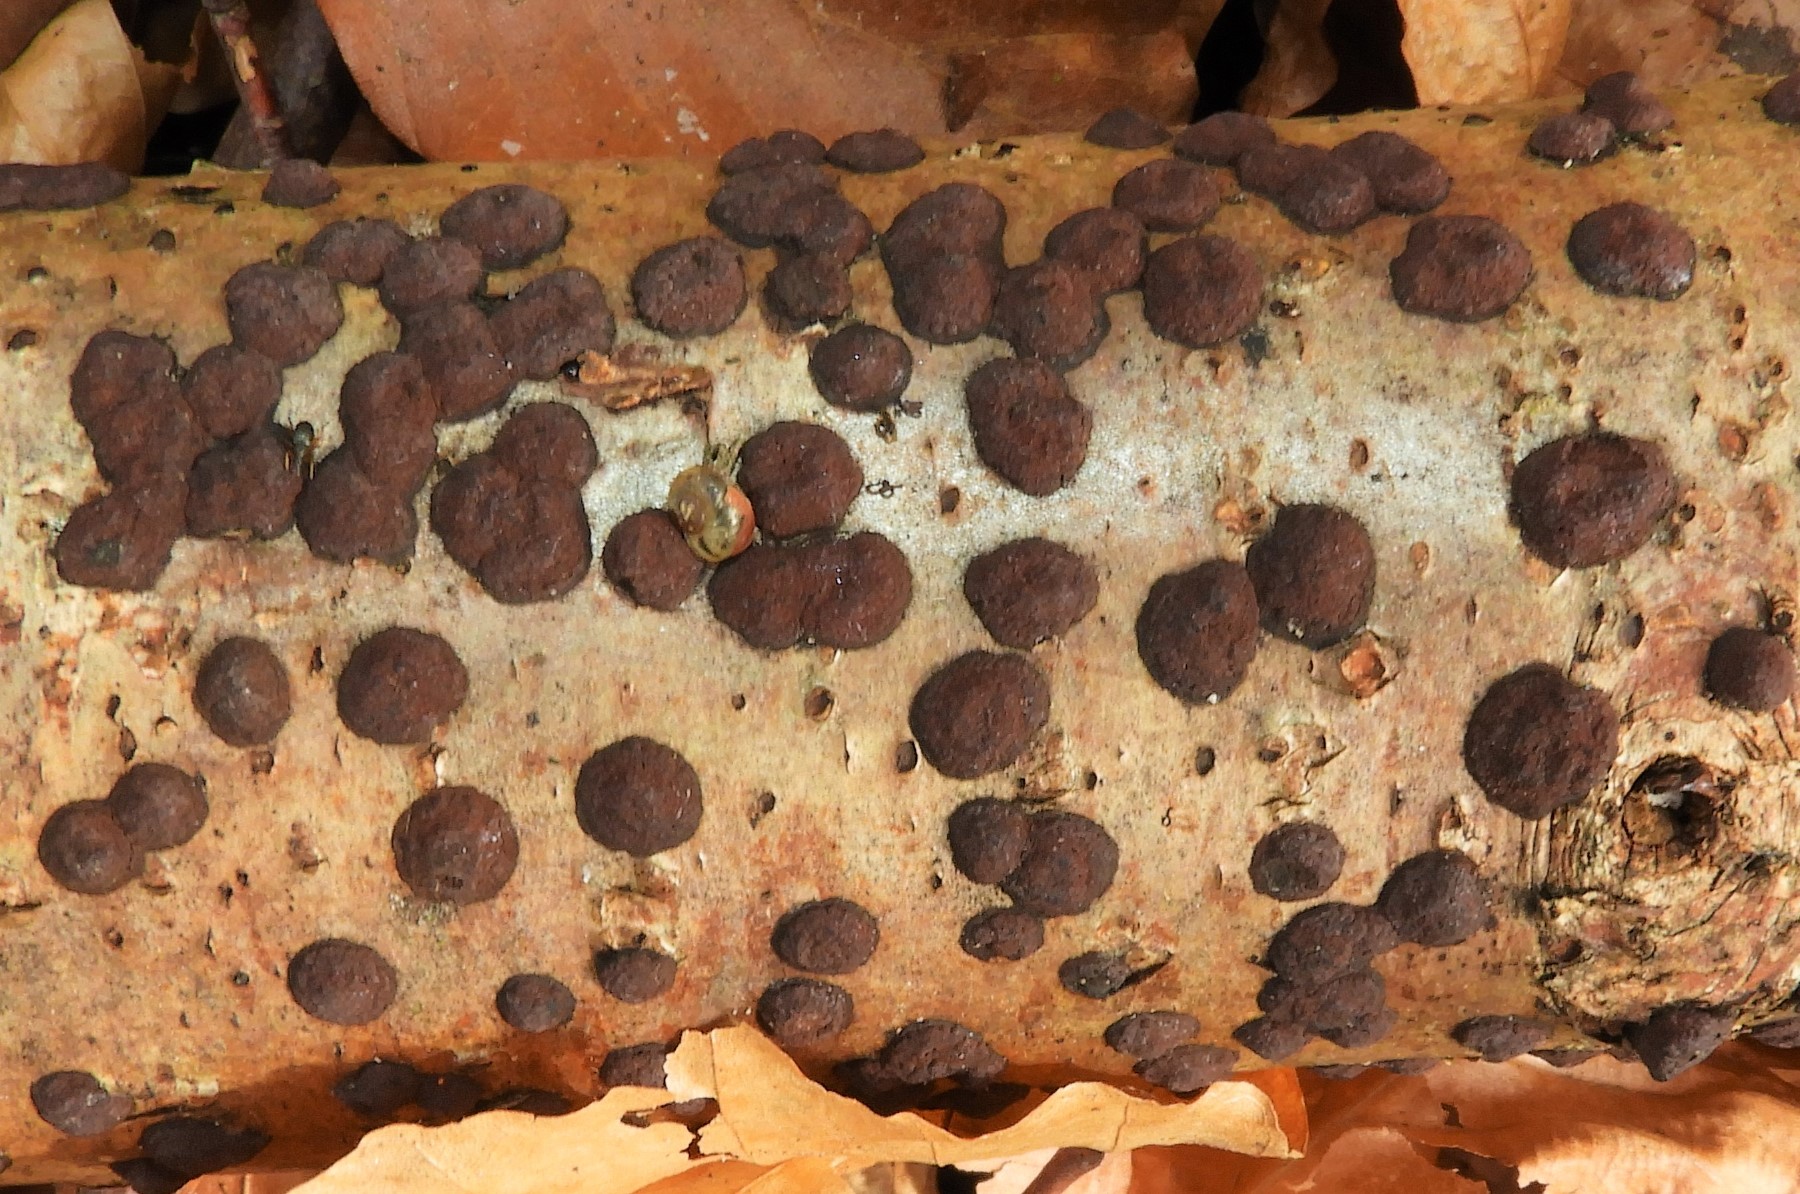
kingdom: Fungi
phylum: Ascomycota
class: Sordariomycetes
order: Xylariales
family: Hypoxylaceae
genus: Hypoxylon
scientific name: Hypoxylon fuscum
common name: kegleformet kulbær
